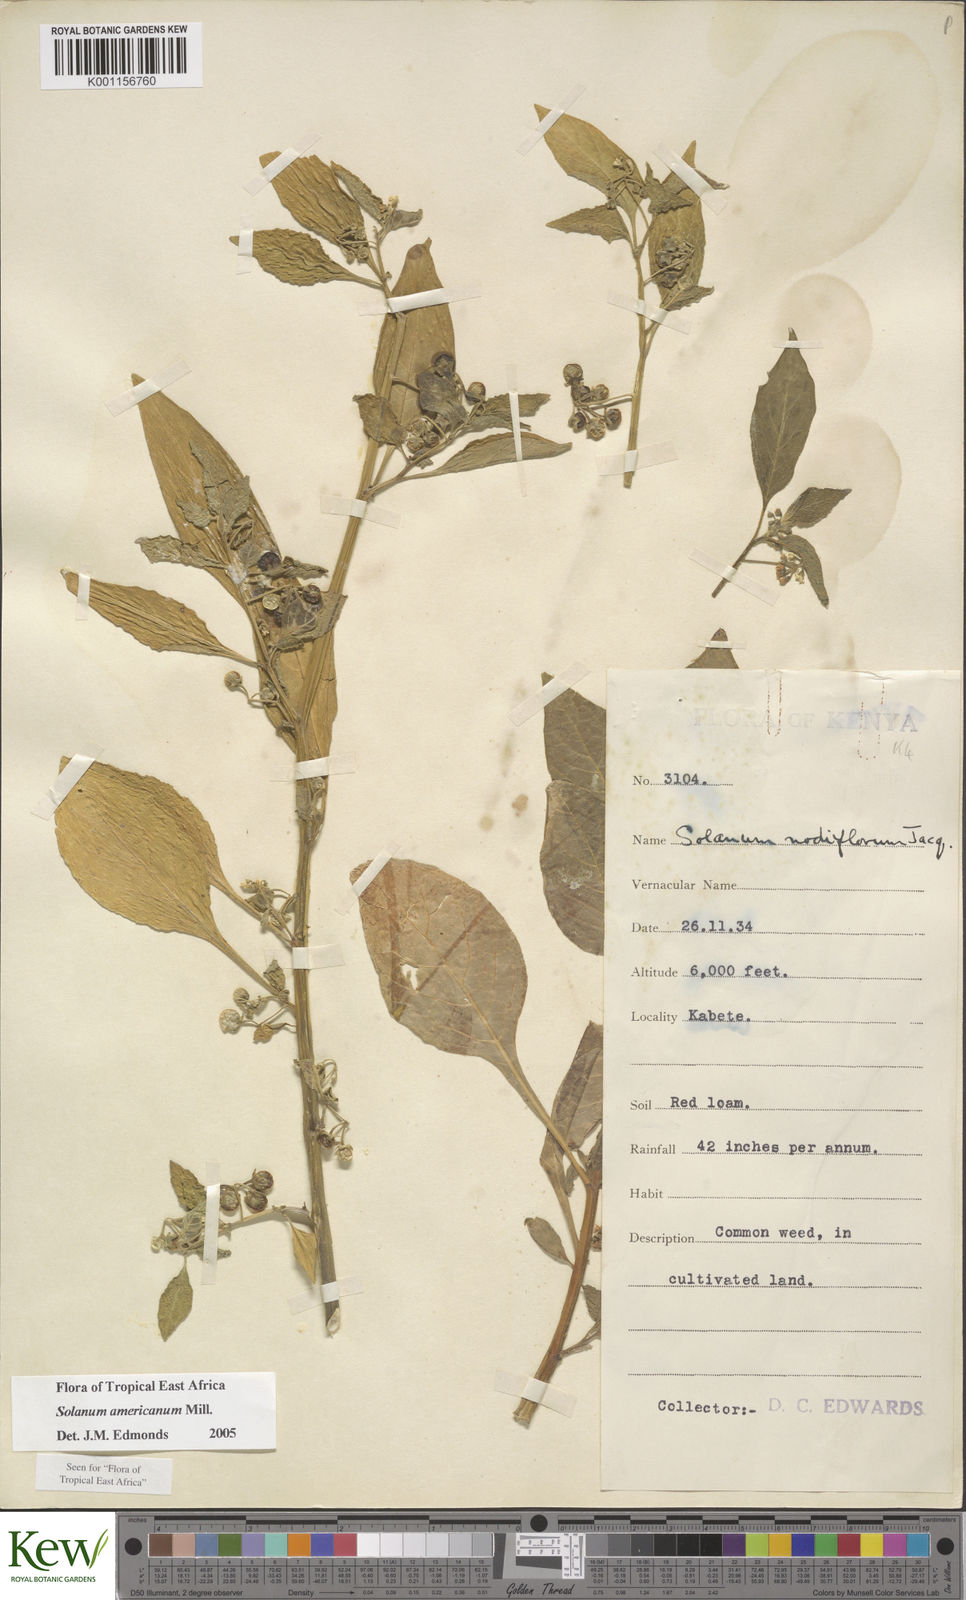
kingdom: Plantae
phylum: Tracheophyta
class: Magnoliopsida
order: Solanales
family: Solanaceae
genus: Solanum
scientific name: Solanum americanum
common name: American black nightshade
